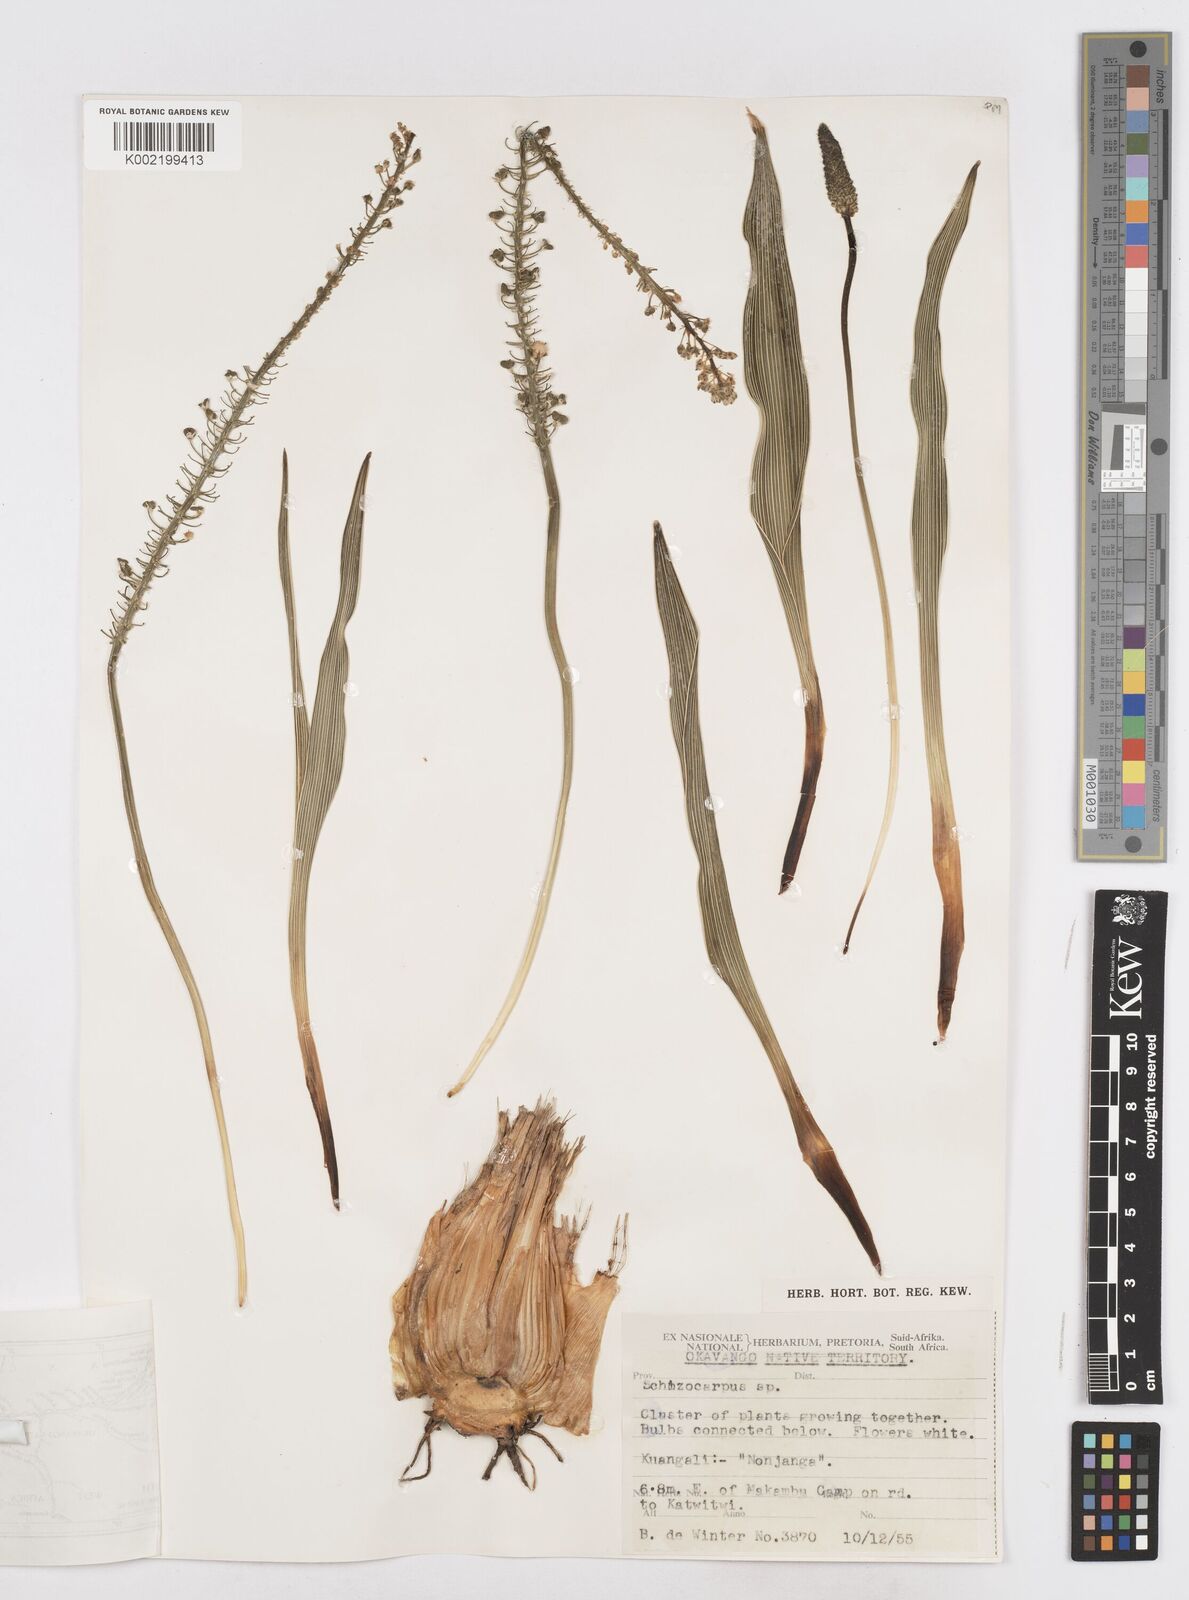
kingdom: Plantae
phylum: Tracheophyta
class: Liliopsida
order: Asparagales
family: Asparagaceae
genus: Schizocarphus
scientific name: Schizocarphus nervosus
